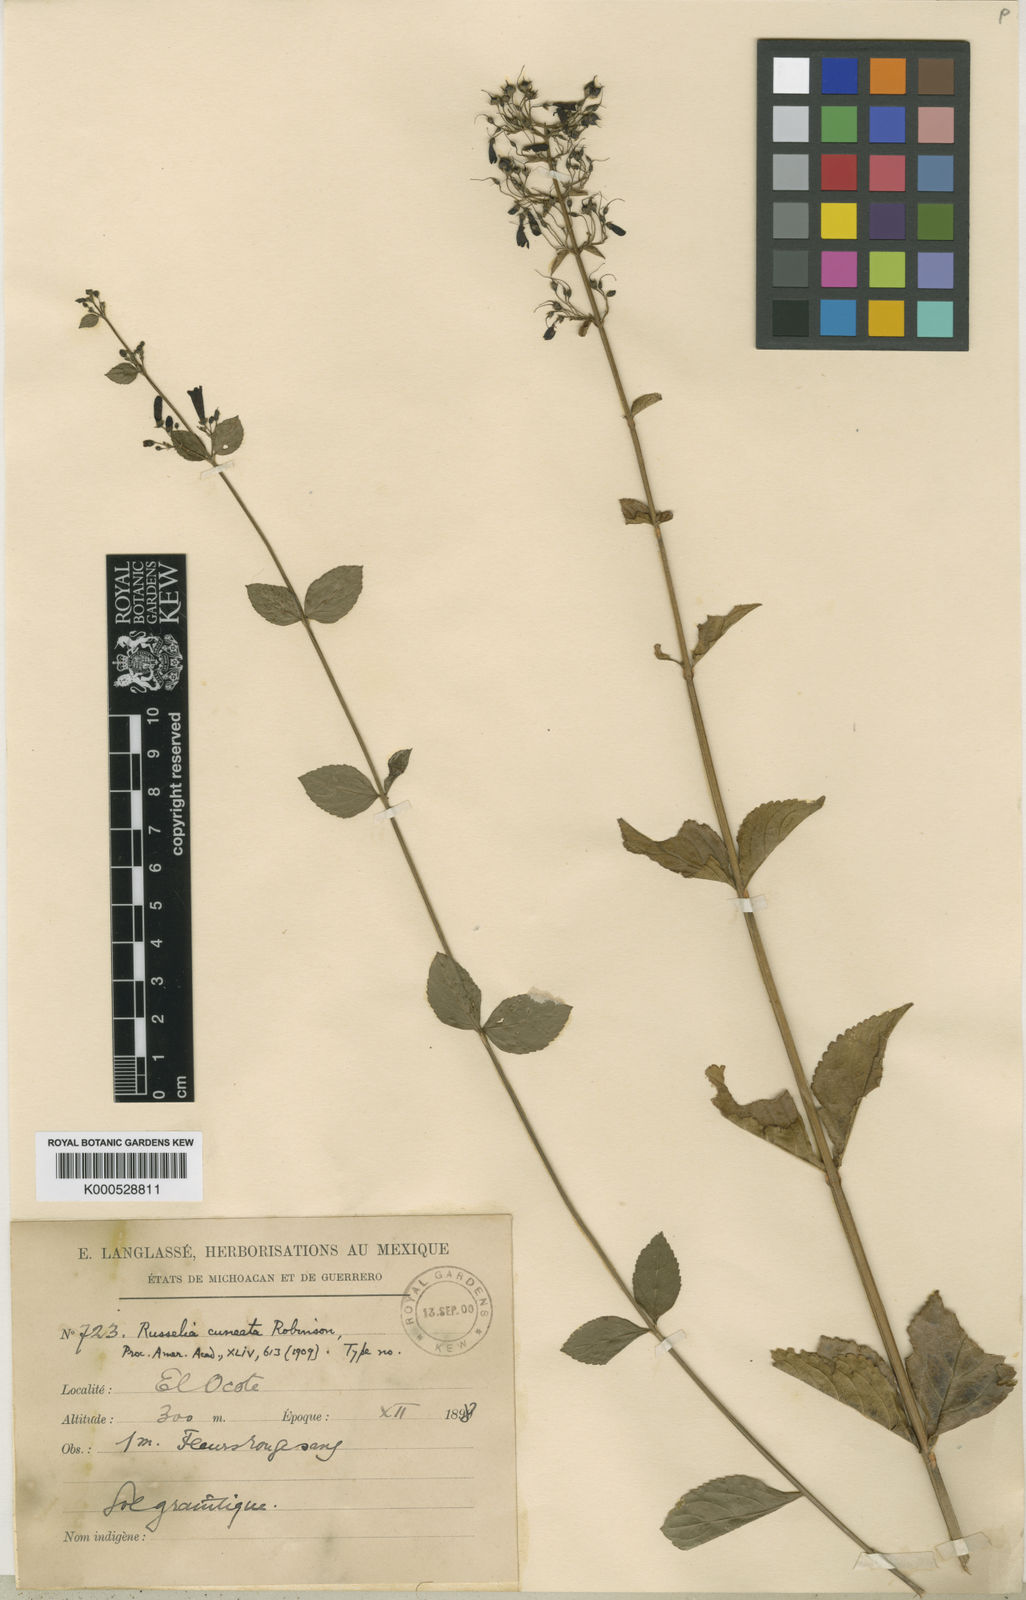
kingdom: Plantae
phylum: Tracheophyta
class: Magnoliopsida
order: Lamiales
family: Plantaginaceae
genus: Russelia
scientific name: Russelia cuneata
